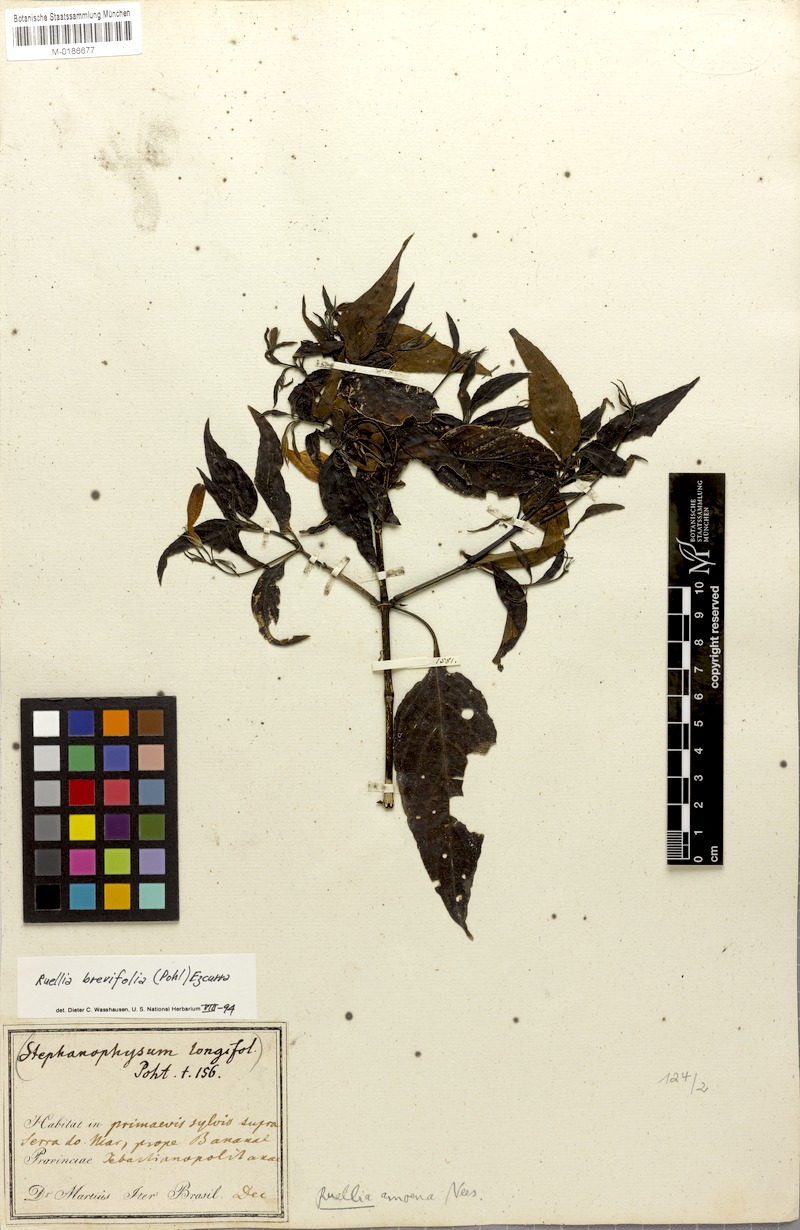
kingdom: Plantae
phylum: Tracheophyta
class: Magnoliopsida
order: Lamiales
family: Acanthaceae
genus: Ruellia
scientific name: Ruellia brevifolia
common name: Tropical wild petunia
